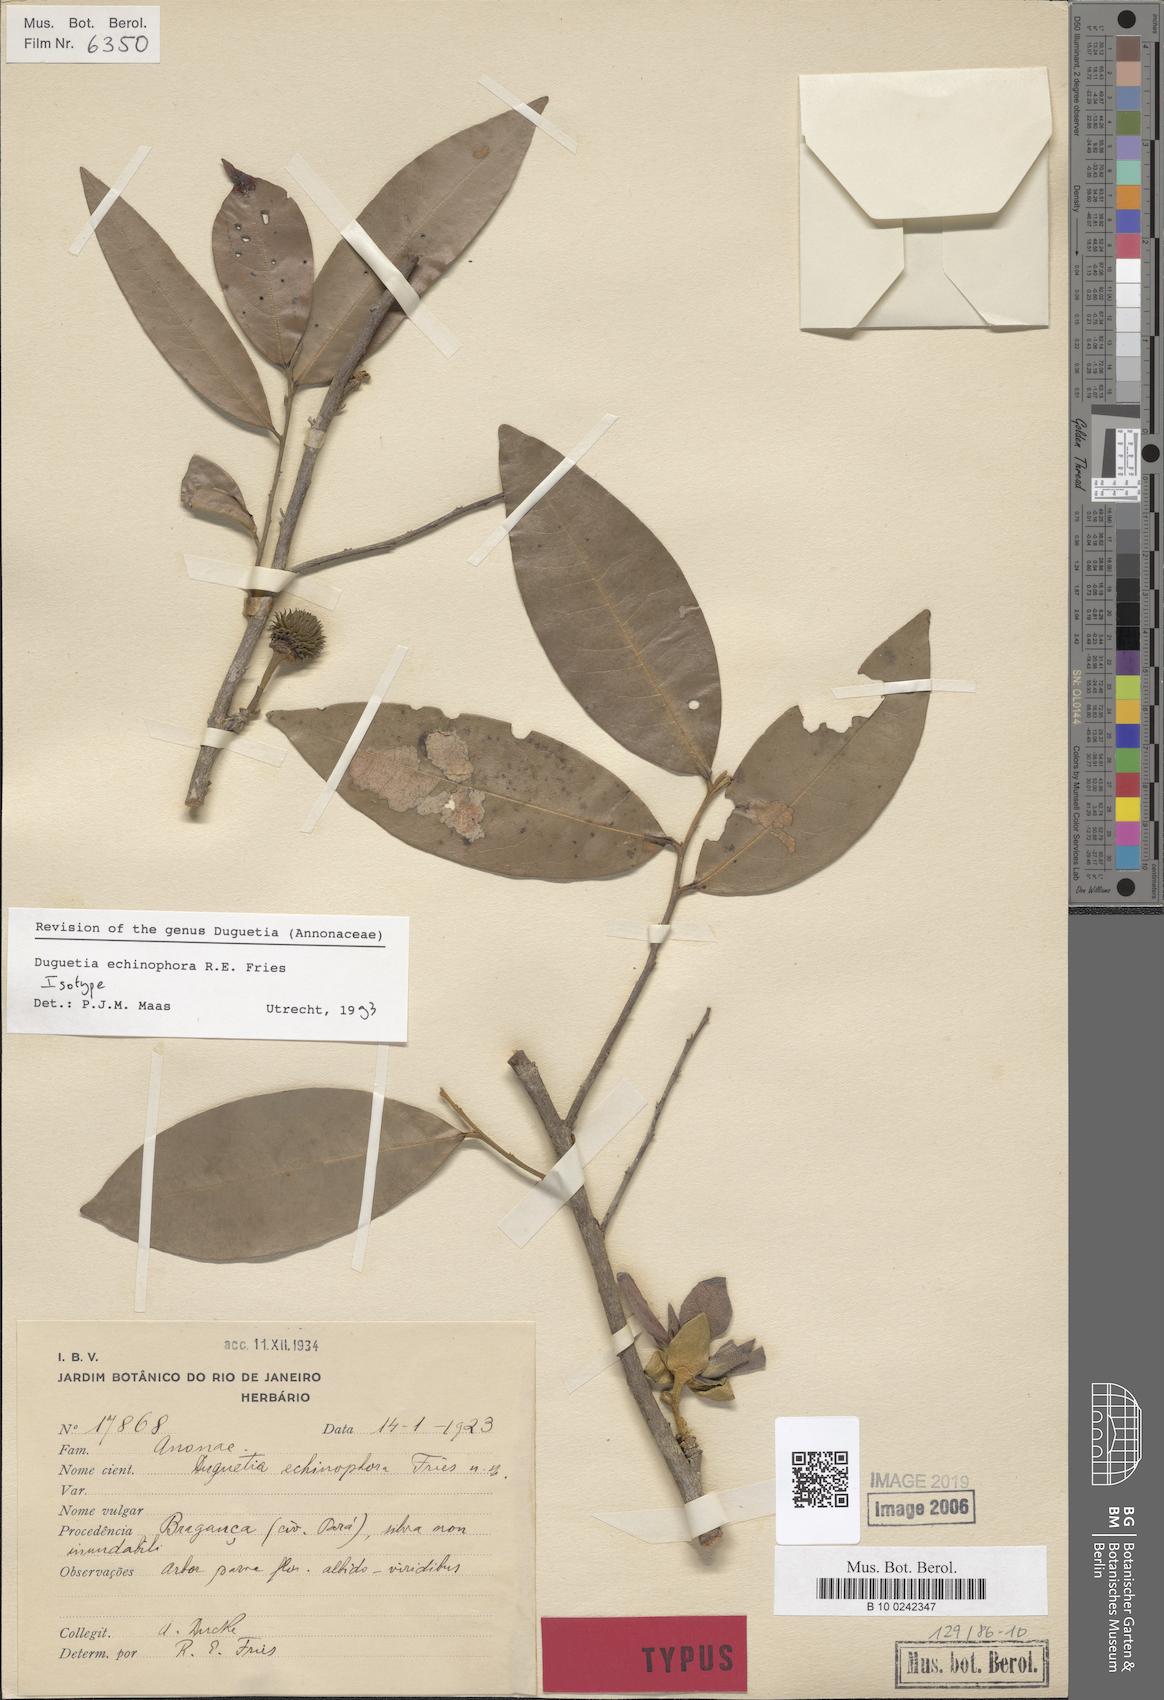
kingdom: Plantae
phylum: Tracheophyta
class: Magnoliopsida
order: Magnoliales
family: Annonaceae
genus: Duguetia
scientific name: Duguetia echinophora
